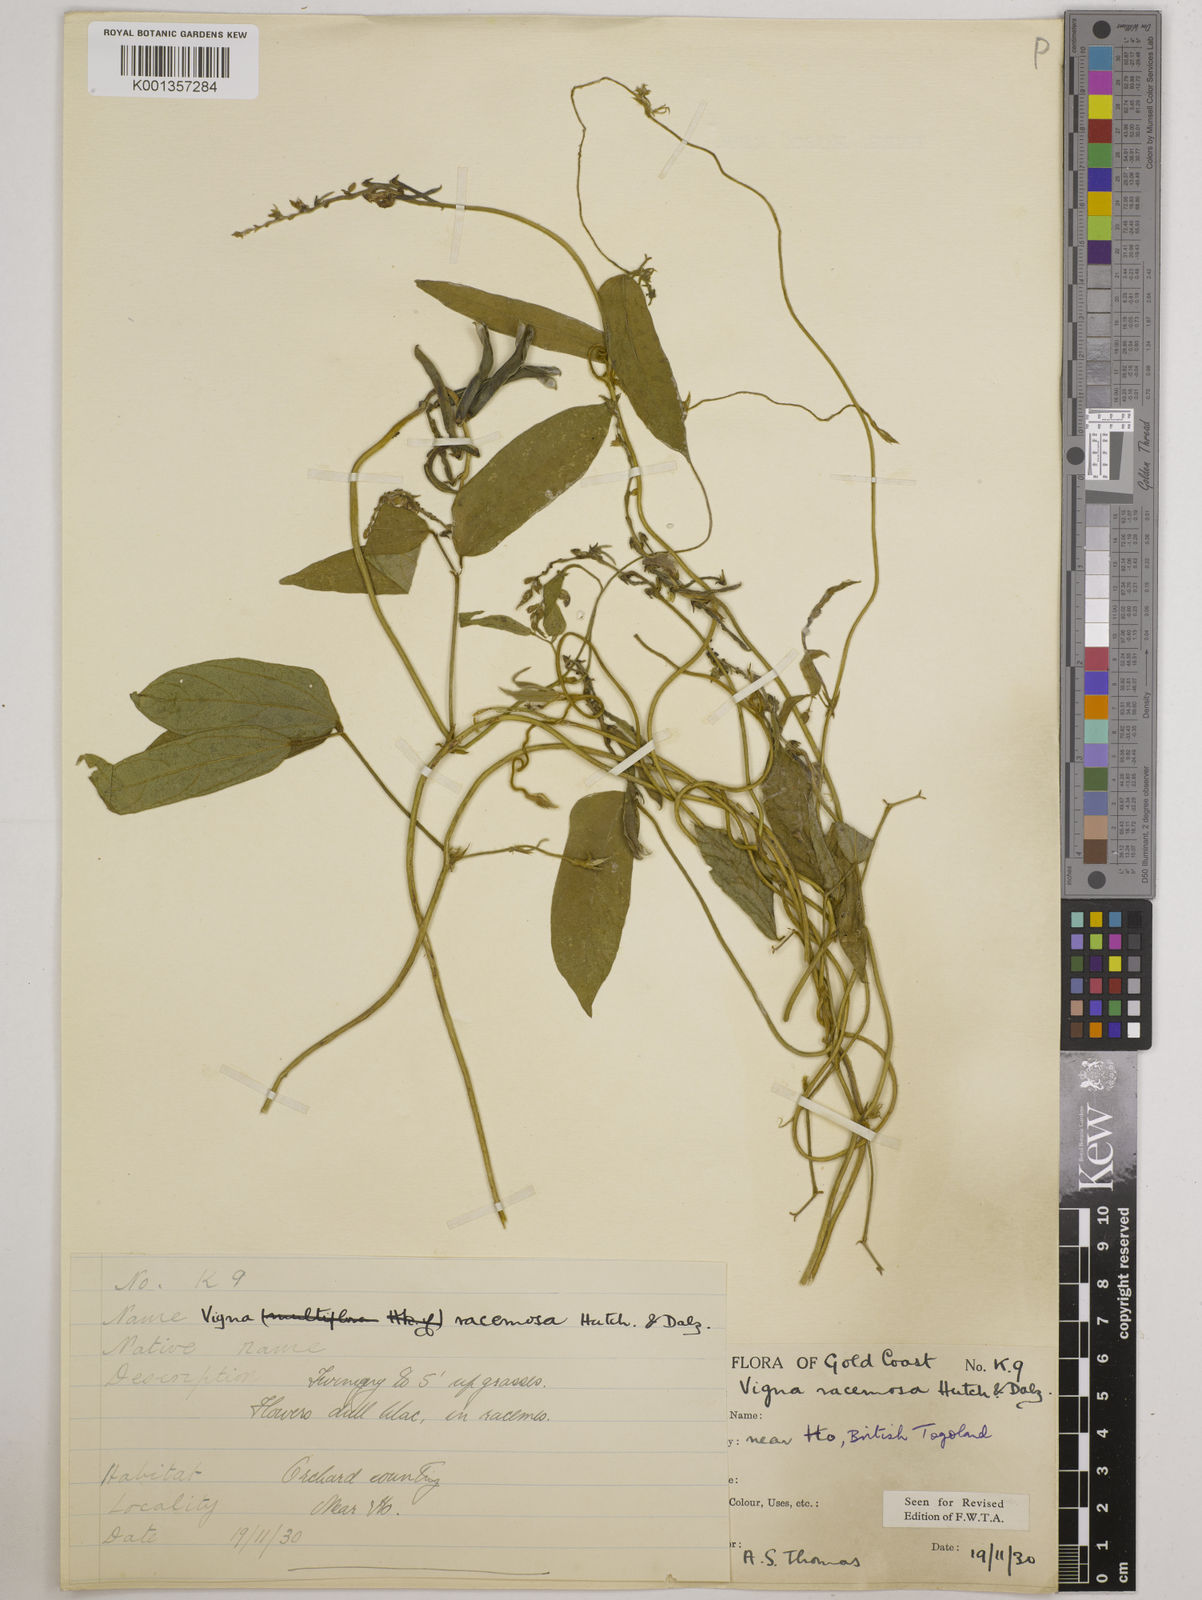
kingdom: Plantae
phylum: Tracheophyta
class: Magnoliopsida
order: Fabales
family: Fabaceae
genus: Vigna
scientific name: Vigna racemosa
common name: Beans not eaten
